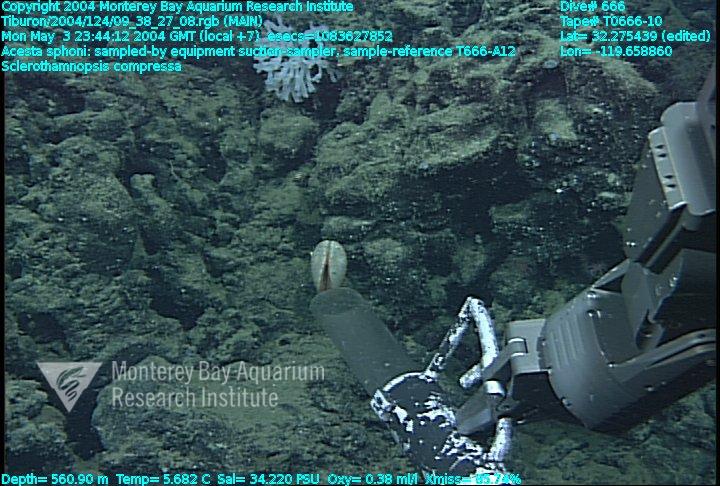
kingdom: Animalia
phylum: Porifera
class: Hexactinellida
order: Sceptrulophora
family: Tretodictyidae
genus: Sclerothamnopsis
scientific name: Sclerothamnopsis compressa
